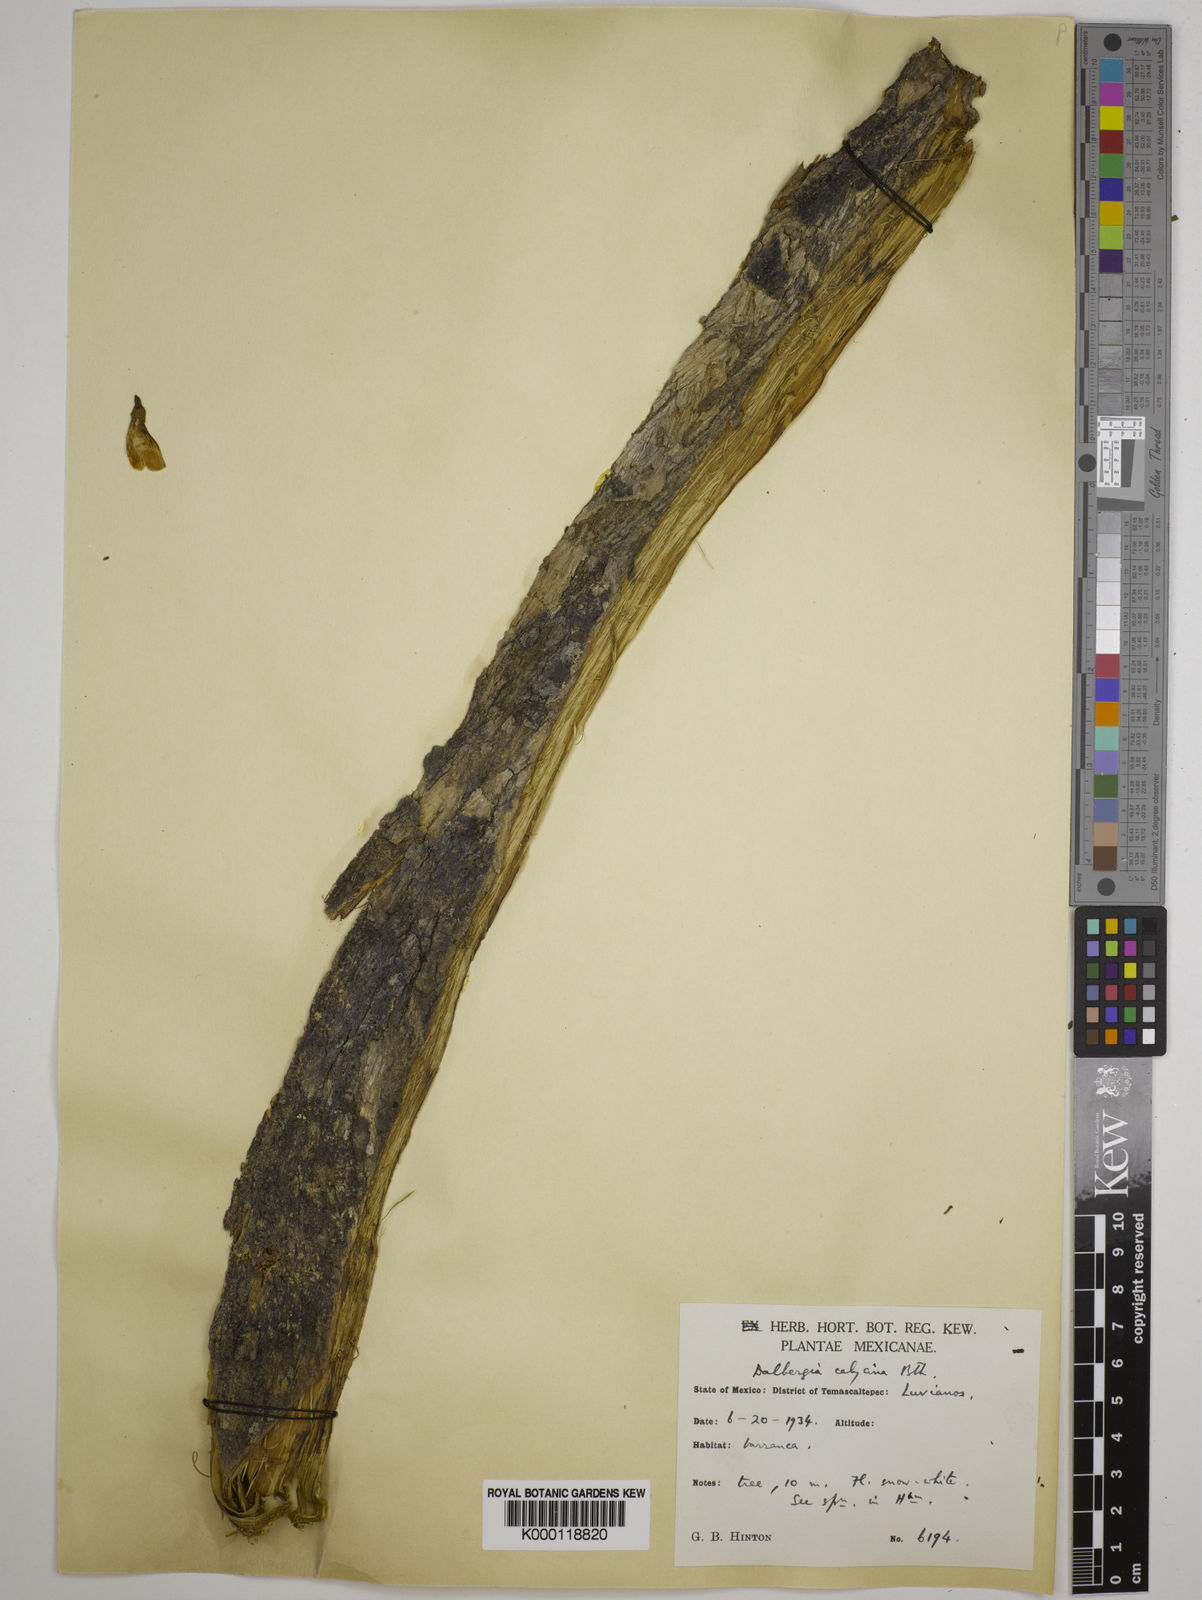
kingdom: Plantae
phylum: Tracheophyta
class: Magnoliopsida
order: Fabales
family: Fabaceae
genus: Dalbergia
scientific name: Dalbergia calycina
